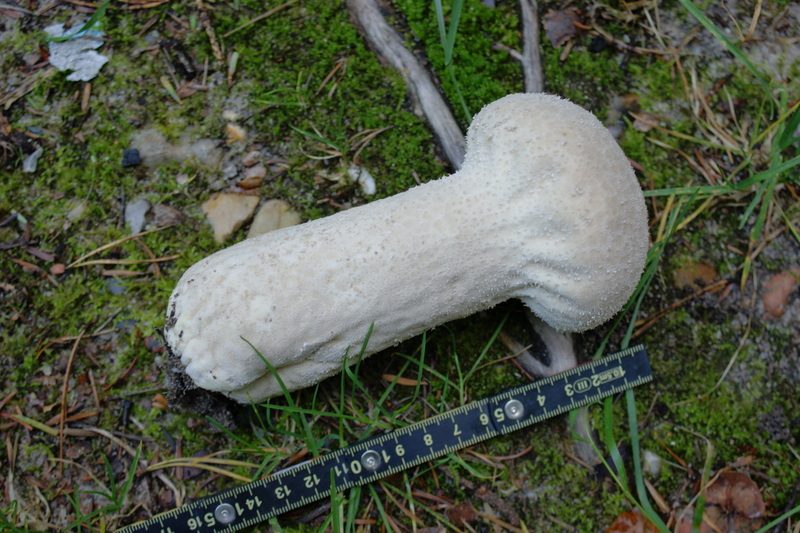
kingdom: Fungi
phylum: Basidiomycota
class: Agaricomycetes
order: Agaricales
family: Lycoperdaceae
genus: Lycoperdon
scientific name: Lycoperdon excipuliforme
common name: højstokket støvbold
